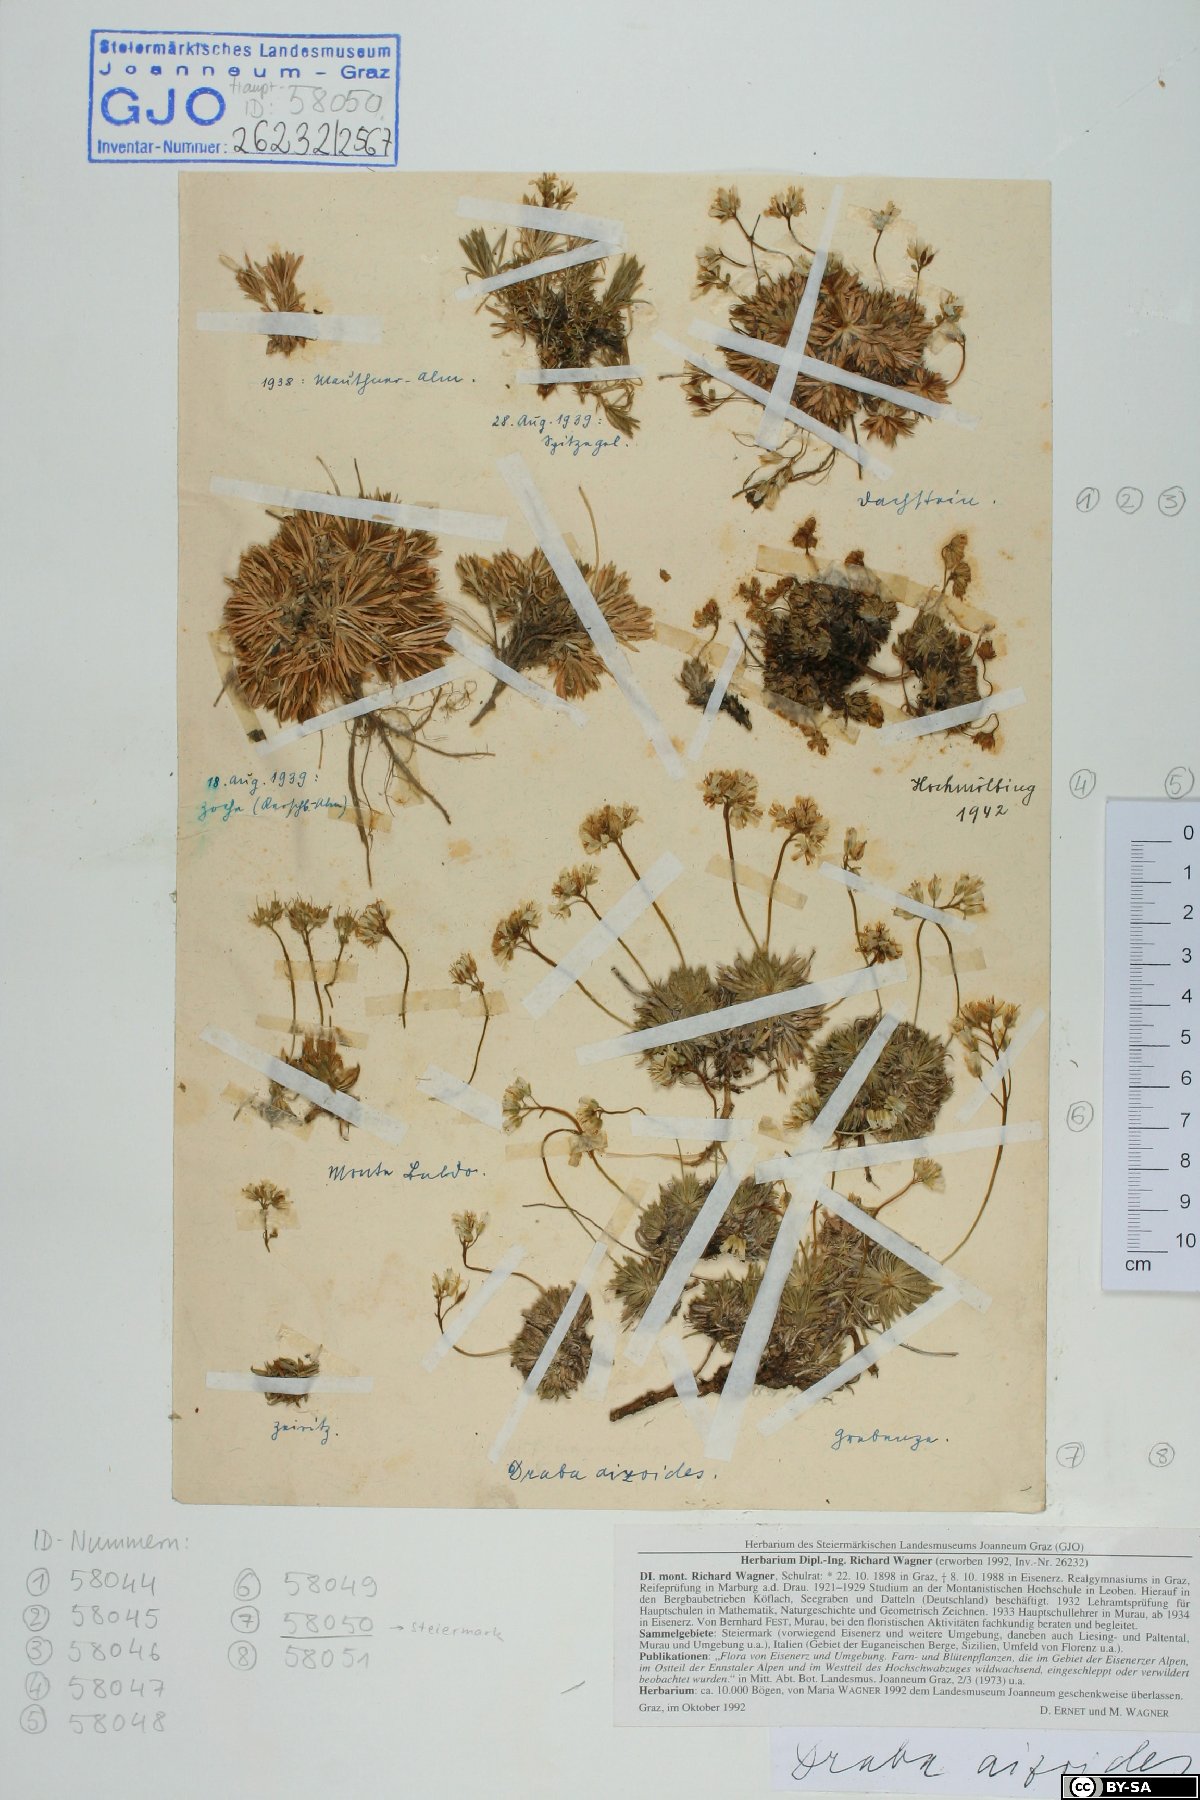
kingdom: Plantae
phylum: Tracheophyta
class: Magnoliopsida
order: Brassicales
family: Brassicaceae
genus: Draba
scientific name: Draba aizoides
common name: Yellow whitlowgrass
